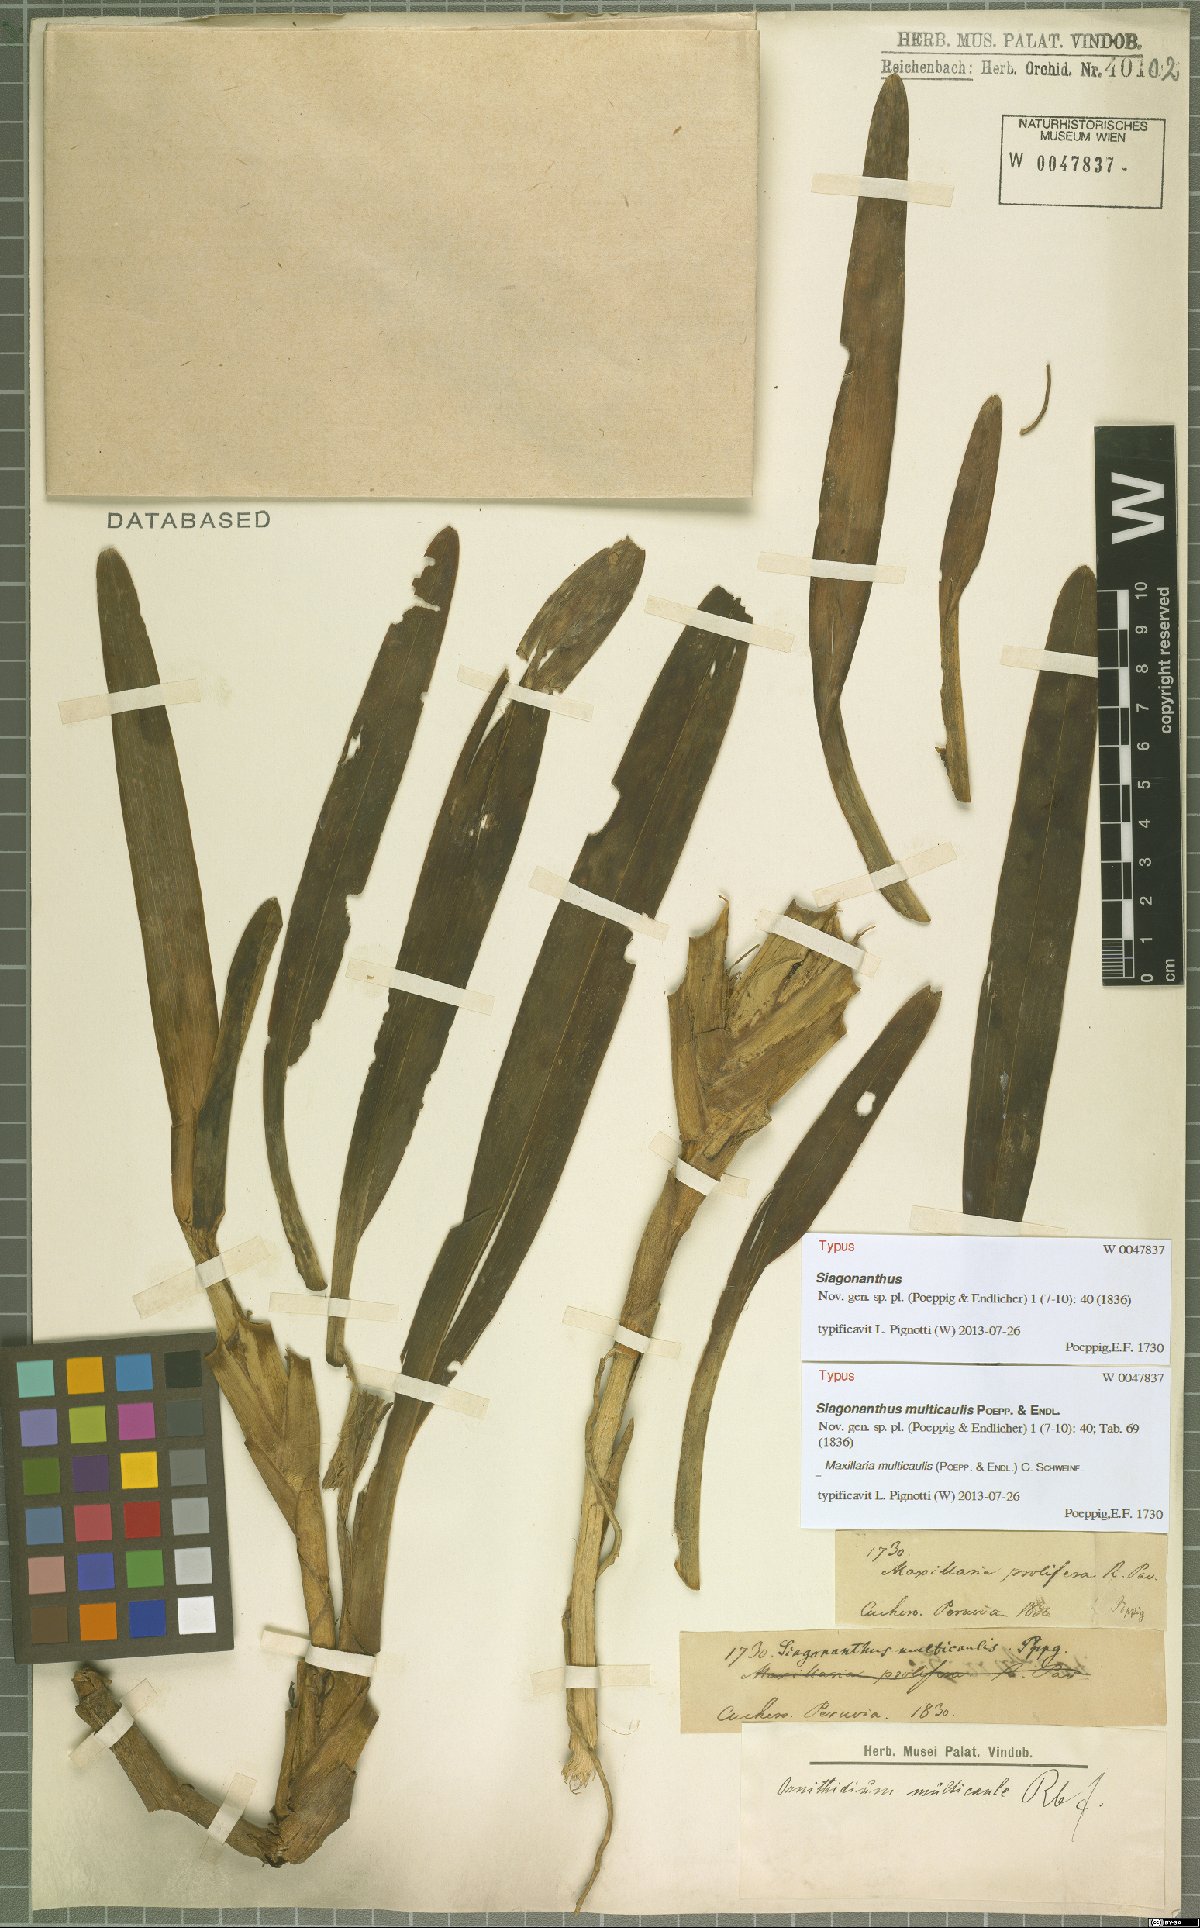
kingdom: Plantae
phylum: Tracheophyta
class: Liliopsida
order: Asparagales
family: Orchidaceae
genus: Maxillaria
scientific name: Maxillaria multicaulis
